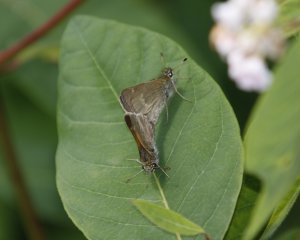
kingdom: Animalia
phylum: Arthropoda
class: Insecta
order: Lepidoptera
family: Hesperiidae
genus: Polites
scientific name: Polites
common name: Crossline Skipper
